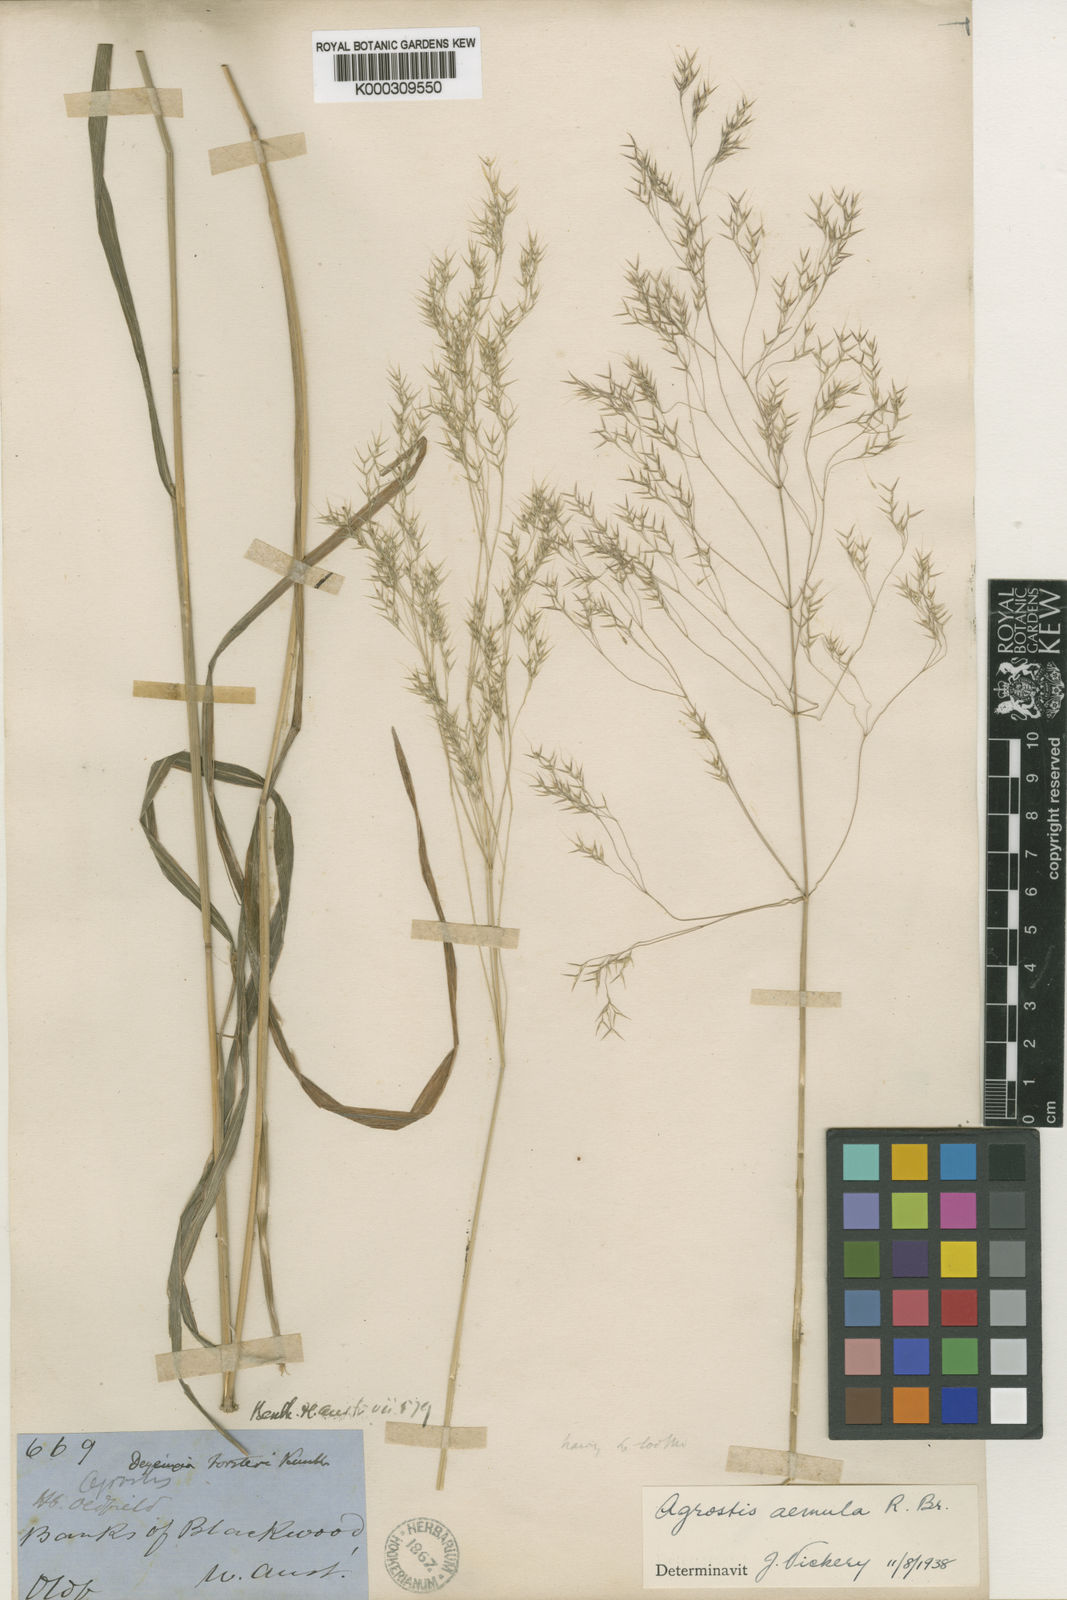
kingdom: Plantae
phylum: Tracheophyta
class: Liliopsida
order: Poales
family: Poaceae
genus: Lachnagrostis
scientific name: Lachnagrostis aemula
